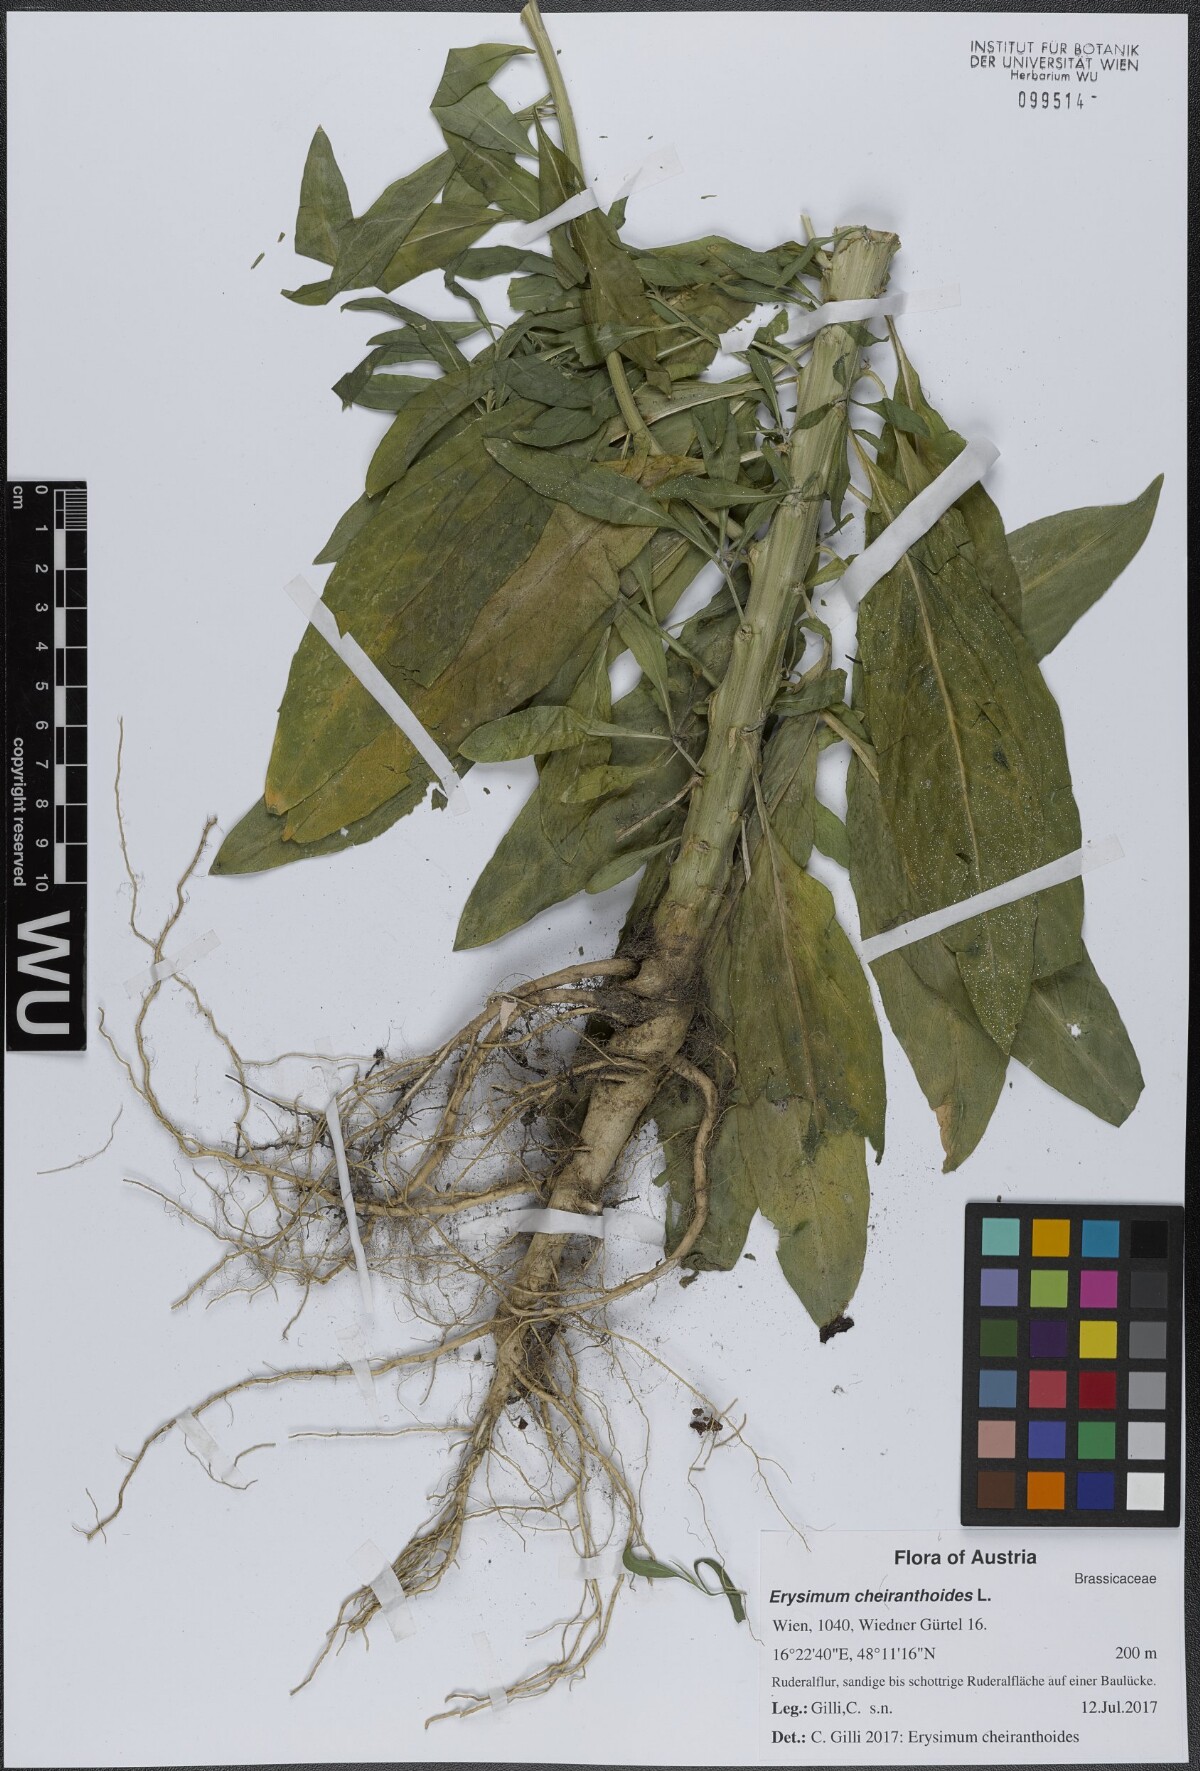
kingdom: Plantae
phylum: Tracheophyta
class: Magnoliopsida
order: Brassicales
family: Brassicaceae
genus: Erysimum
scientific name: Erysimum cheiranthoides
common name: Treacle mustard
